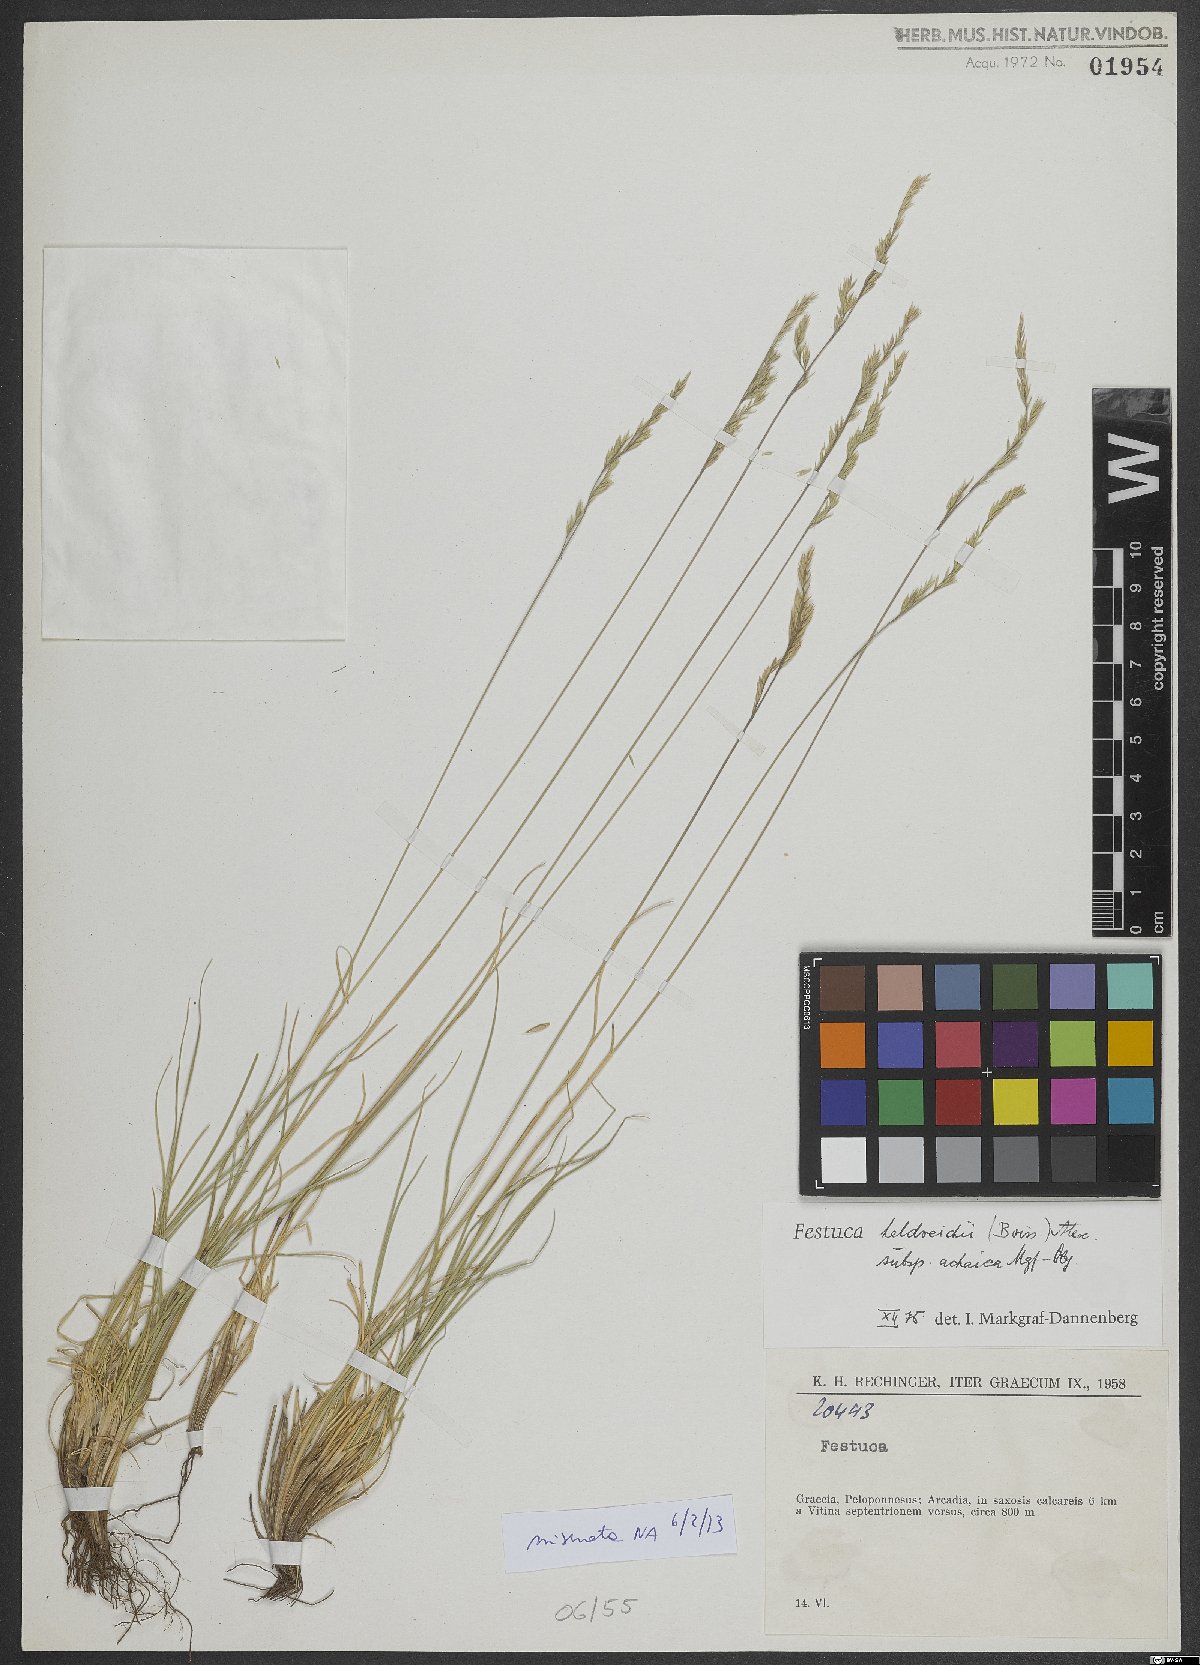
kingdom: Plantae
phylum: Tracheophyta
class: Liliopsida
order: Poales
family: Poaceae
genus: Festuca
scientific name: Festuca jeanpertii
